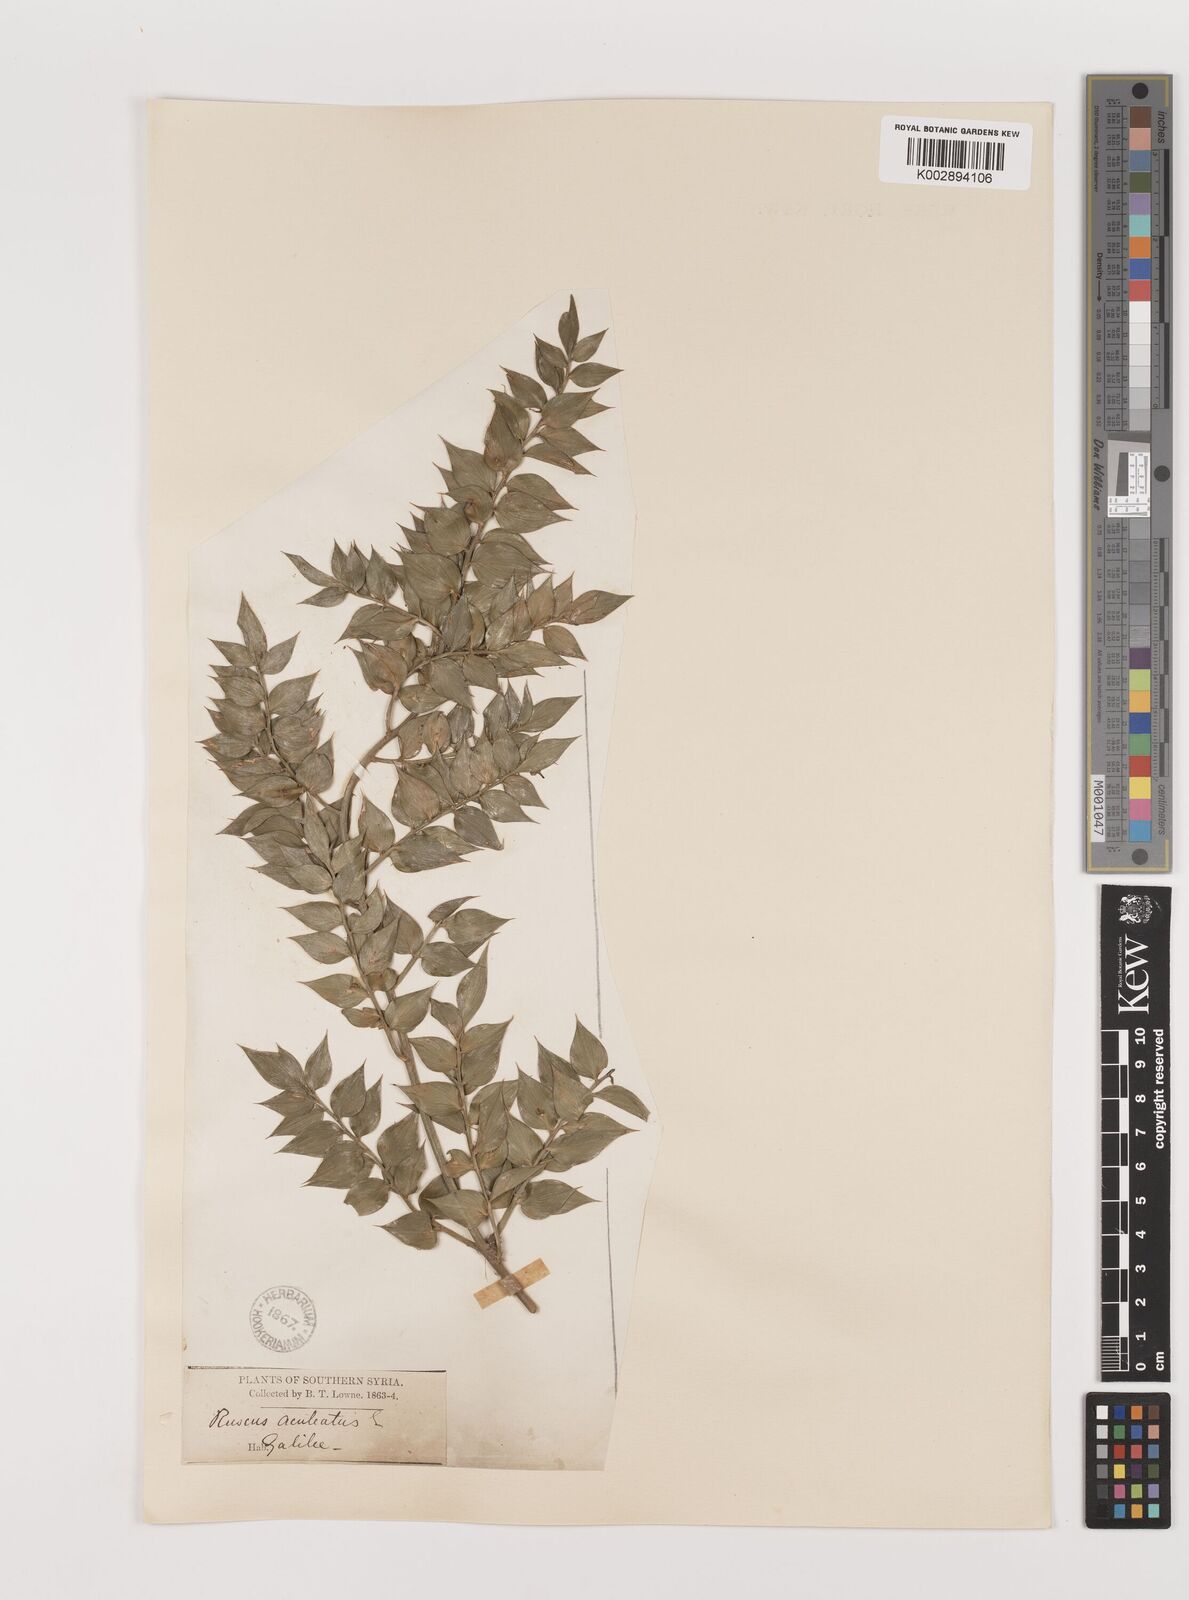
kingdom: Plantae
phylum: Tracheophyta
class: Liliopsida
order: Asparagales
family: Asparagaceae
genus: Ruscus
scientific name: Ruscus aculeatus
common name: Butcher's-broom
